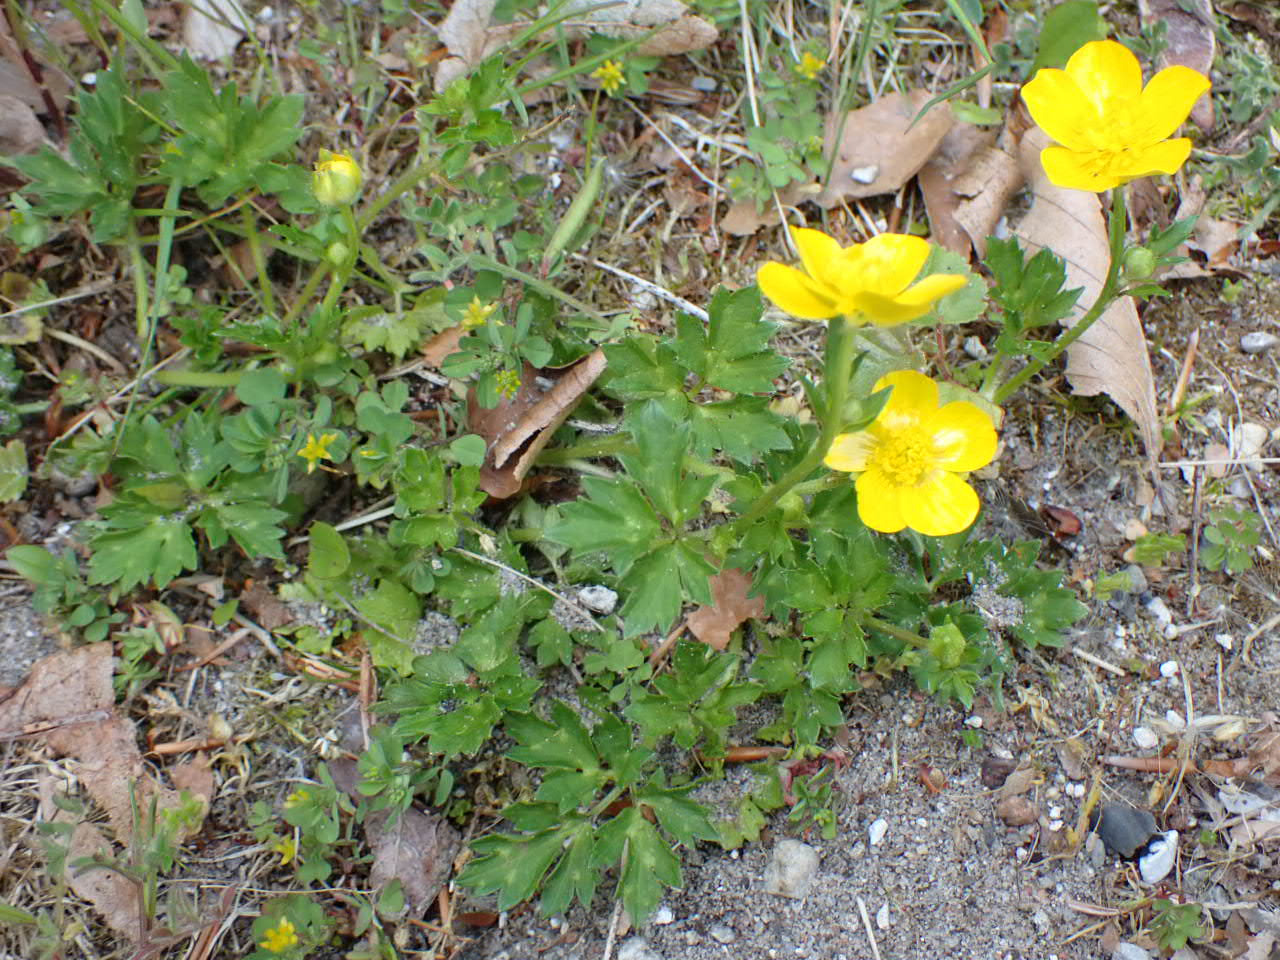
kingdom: Plantae
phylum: Tracheophyta
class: Magnoliopsida
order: Ranunculales
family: Ranunculaceae
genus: Ranunculus
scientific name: Ranunculus repens
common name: Lav ranunkel
